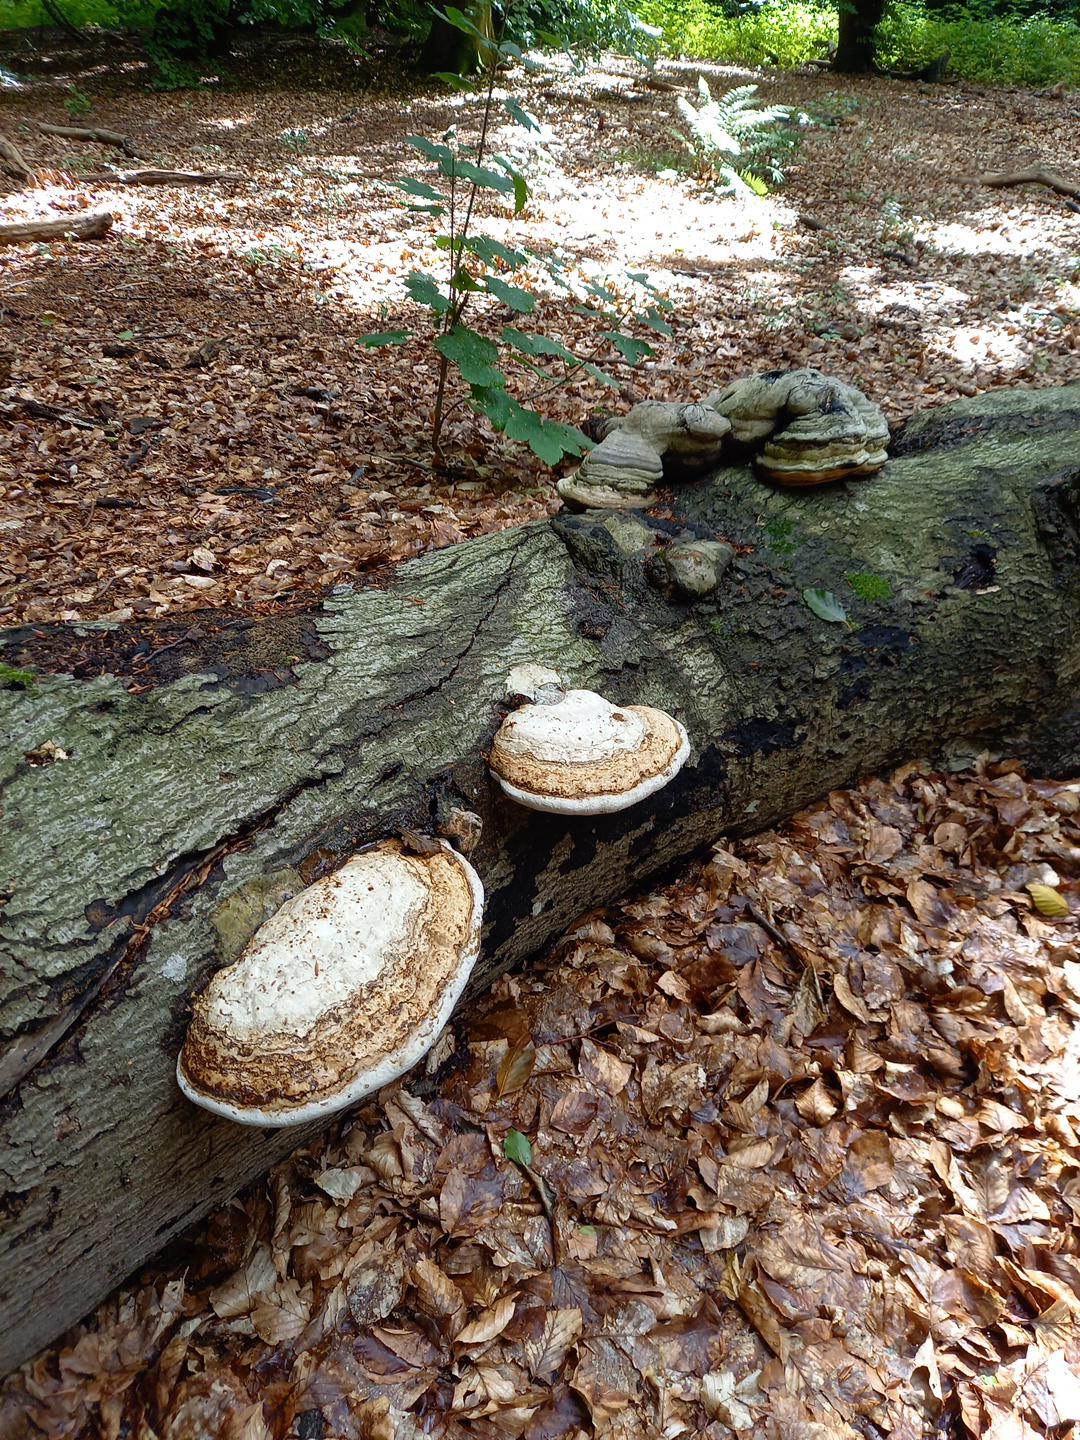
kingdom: Fungi
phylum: Basidiomycota
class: Agaricomycetes
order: Polyporales
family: Polyporaceae
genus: Fomes
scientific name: Fomes fomentarius
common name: tøndersvamp
